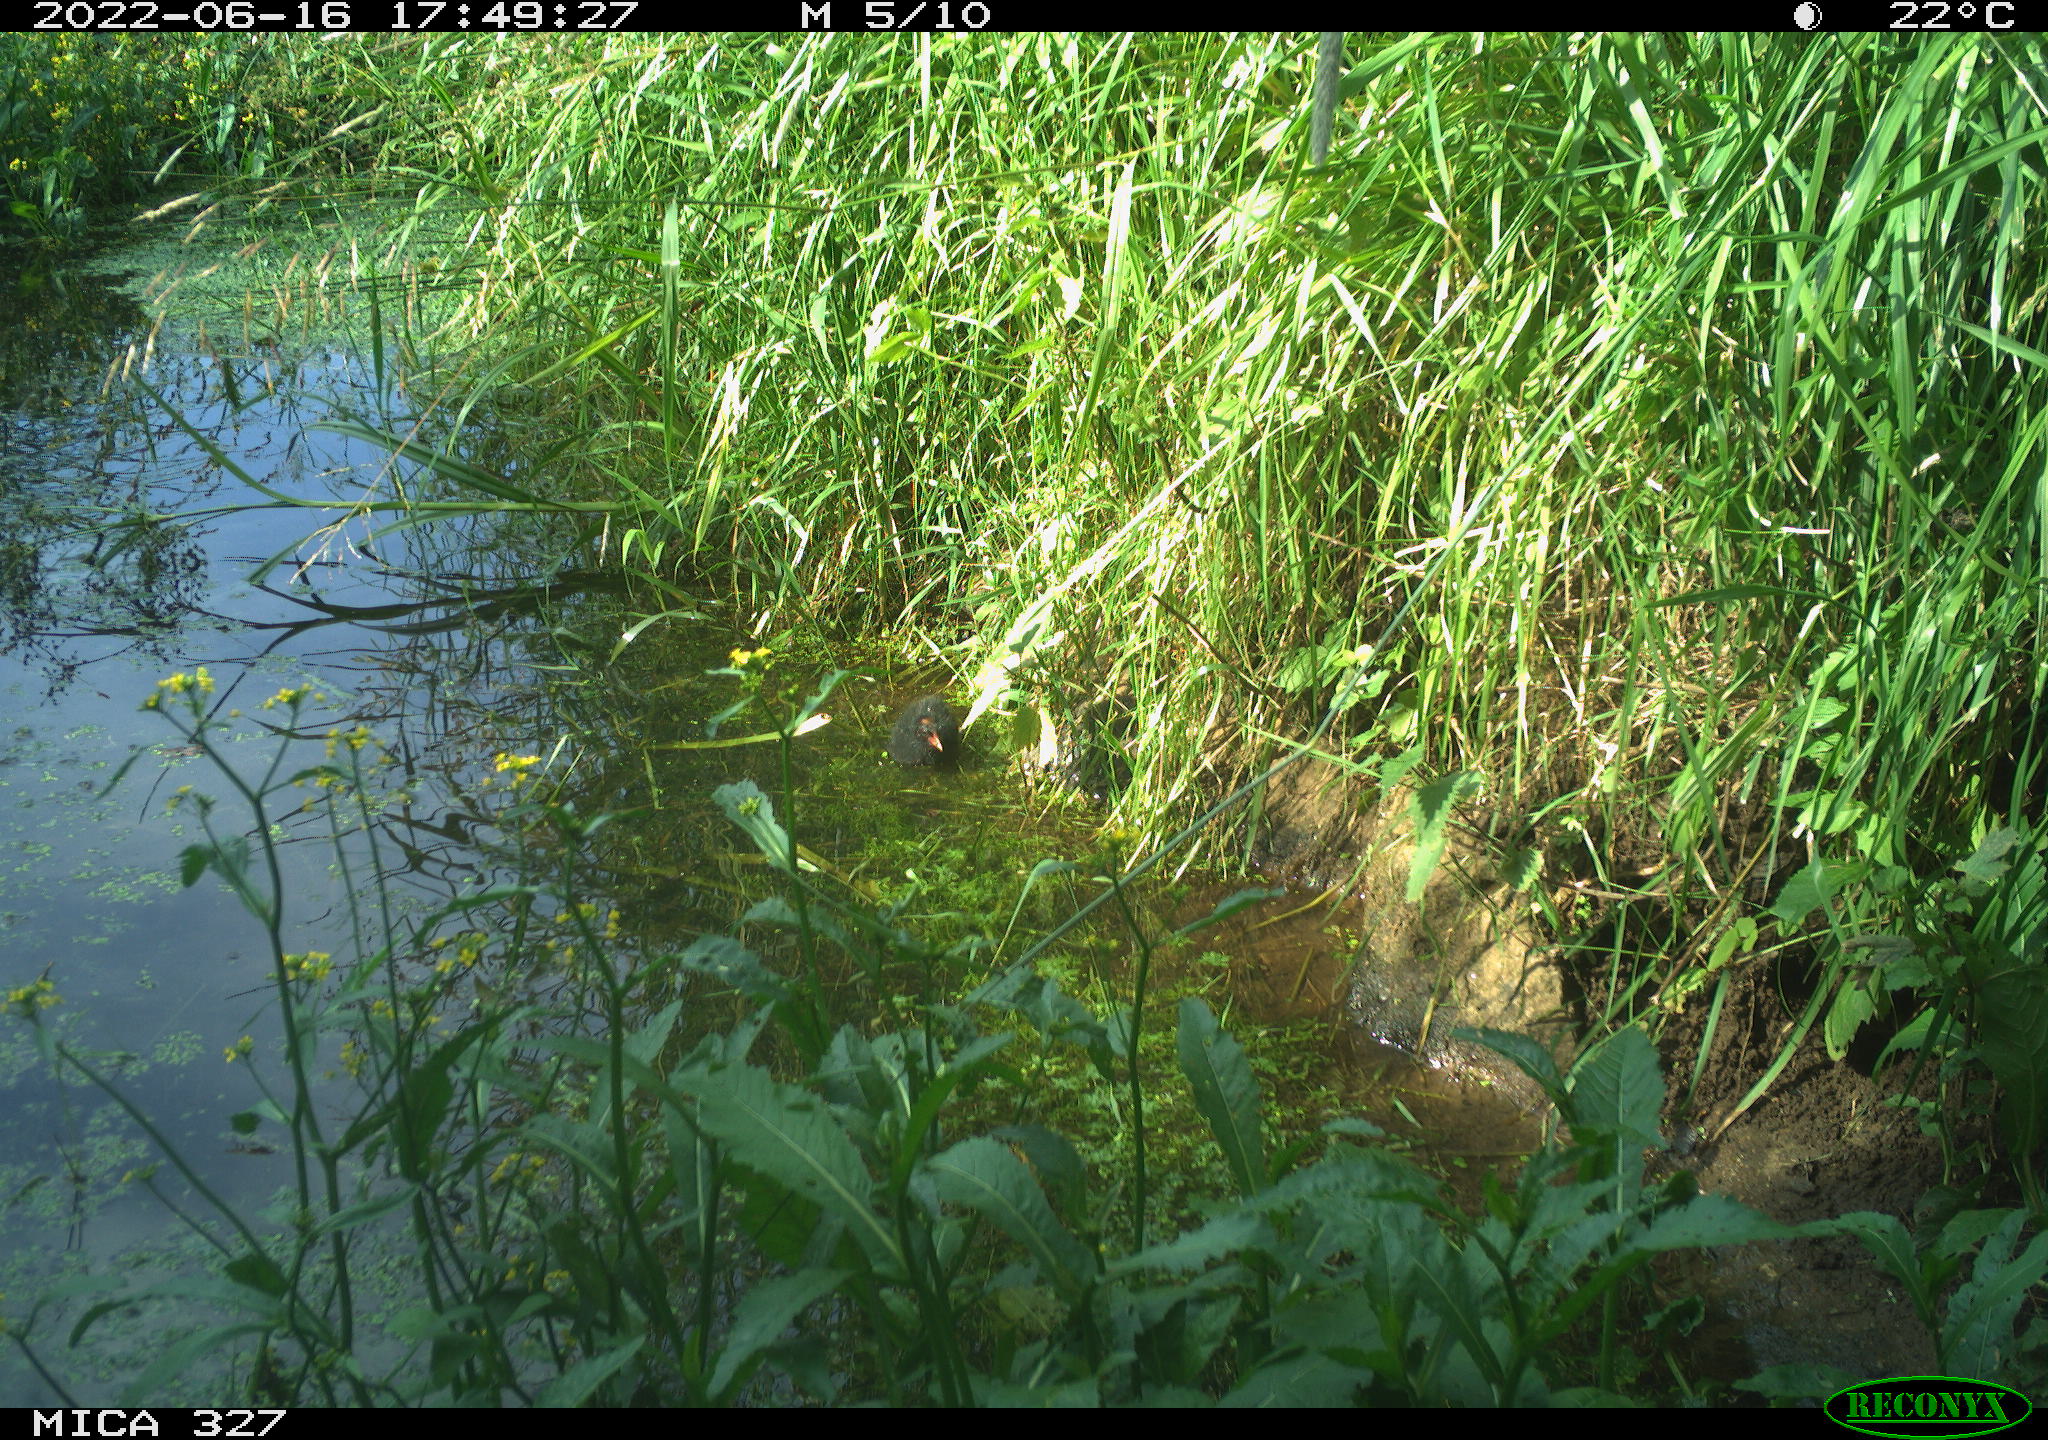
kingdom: Animalia
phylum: Chordata
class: Aves
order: Gruiformes
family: Rallidae
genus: Gallinula
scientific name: Gallinula chloropus
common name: Common moorhen
